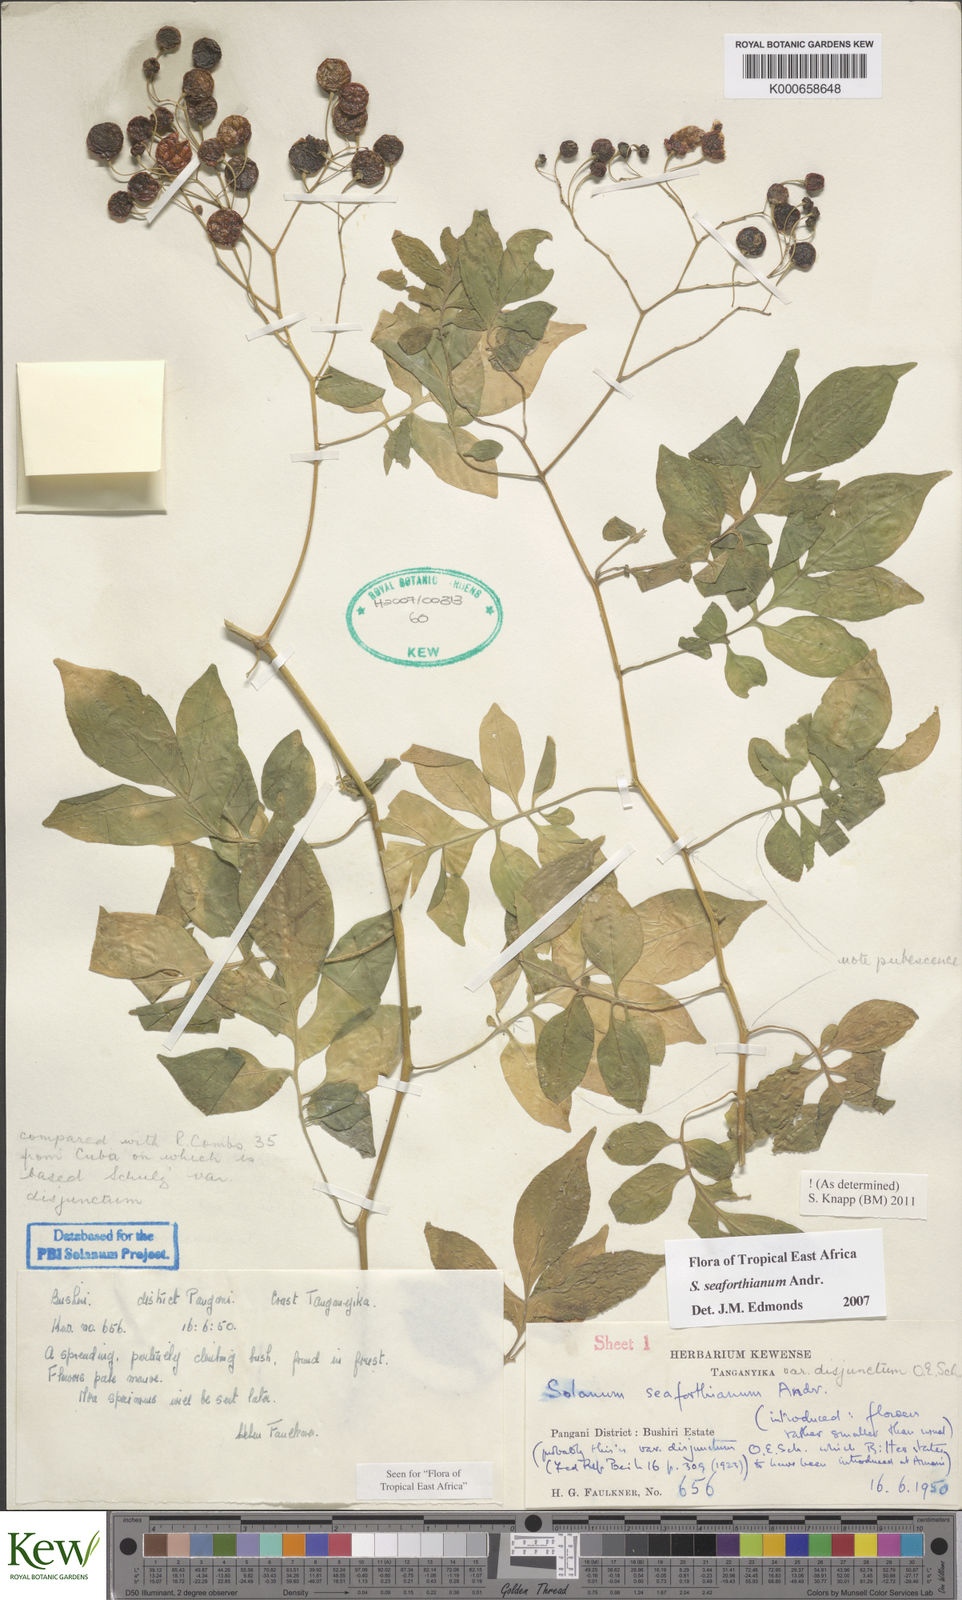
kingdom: Plantae
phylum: Tracheophyta
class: Magnoliopsida
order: Solanales
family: Solanaceae
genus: Solanum
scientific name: Solanum seaforthianum
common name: Brazilian nightshade
